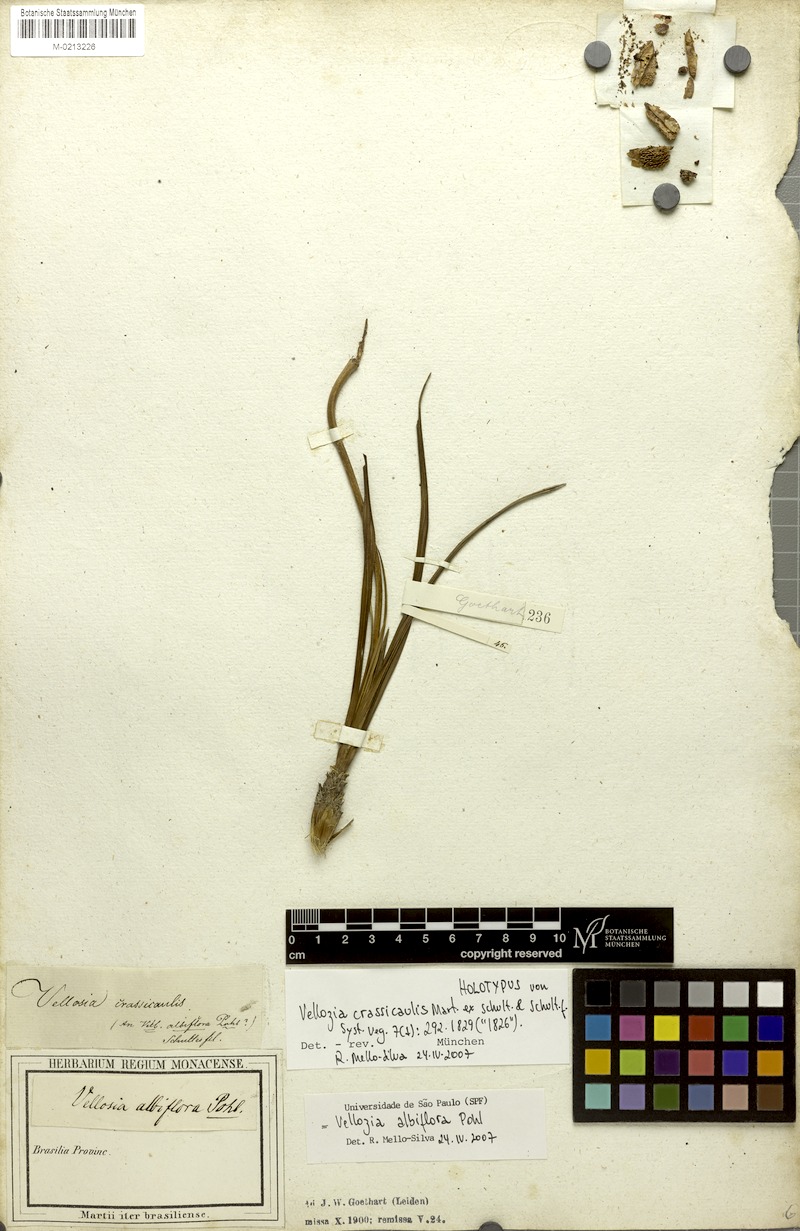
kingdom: Plantae
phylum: Tracheophyta
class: Liliopsida
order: Pandanales
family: Velloziaceae
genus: Vellozia
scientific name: Vellozia albiflora
